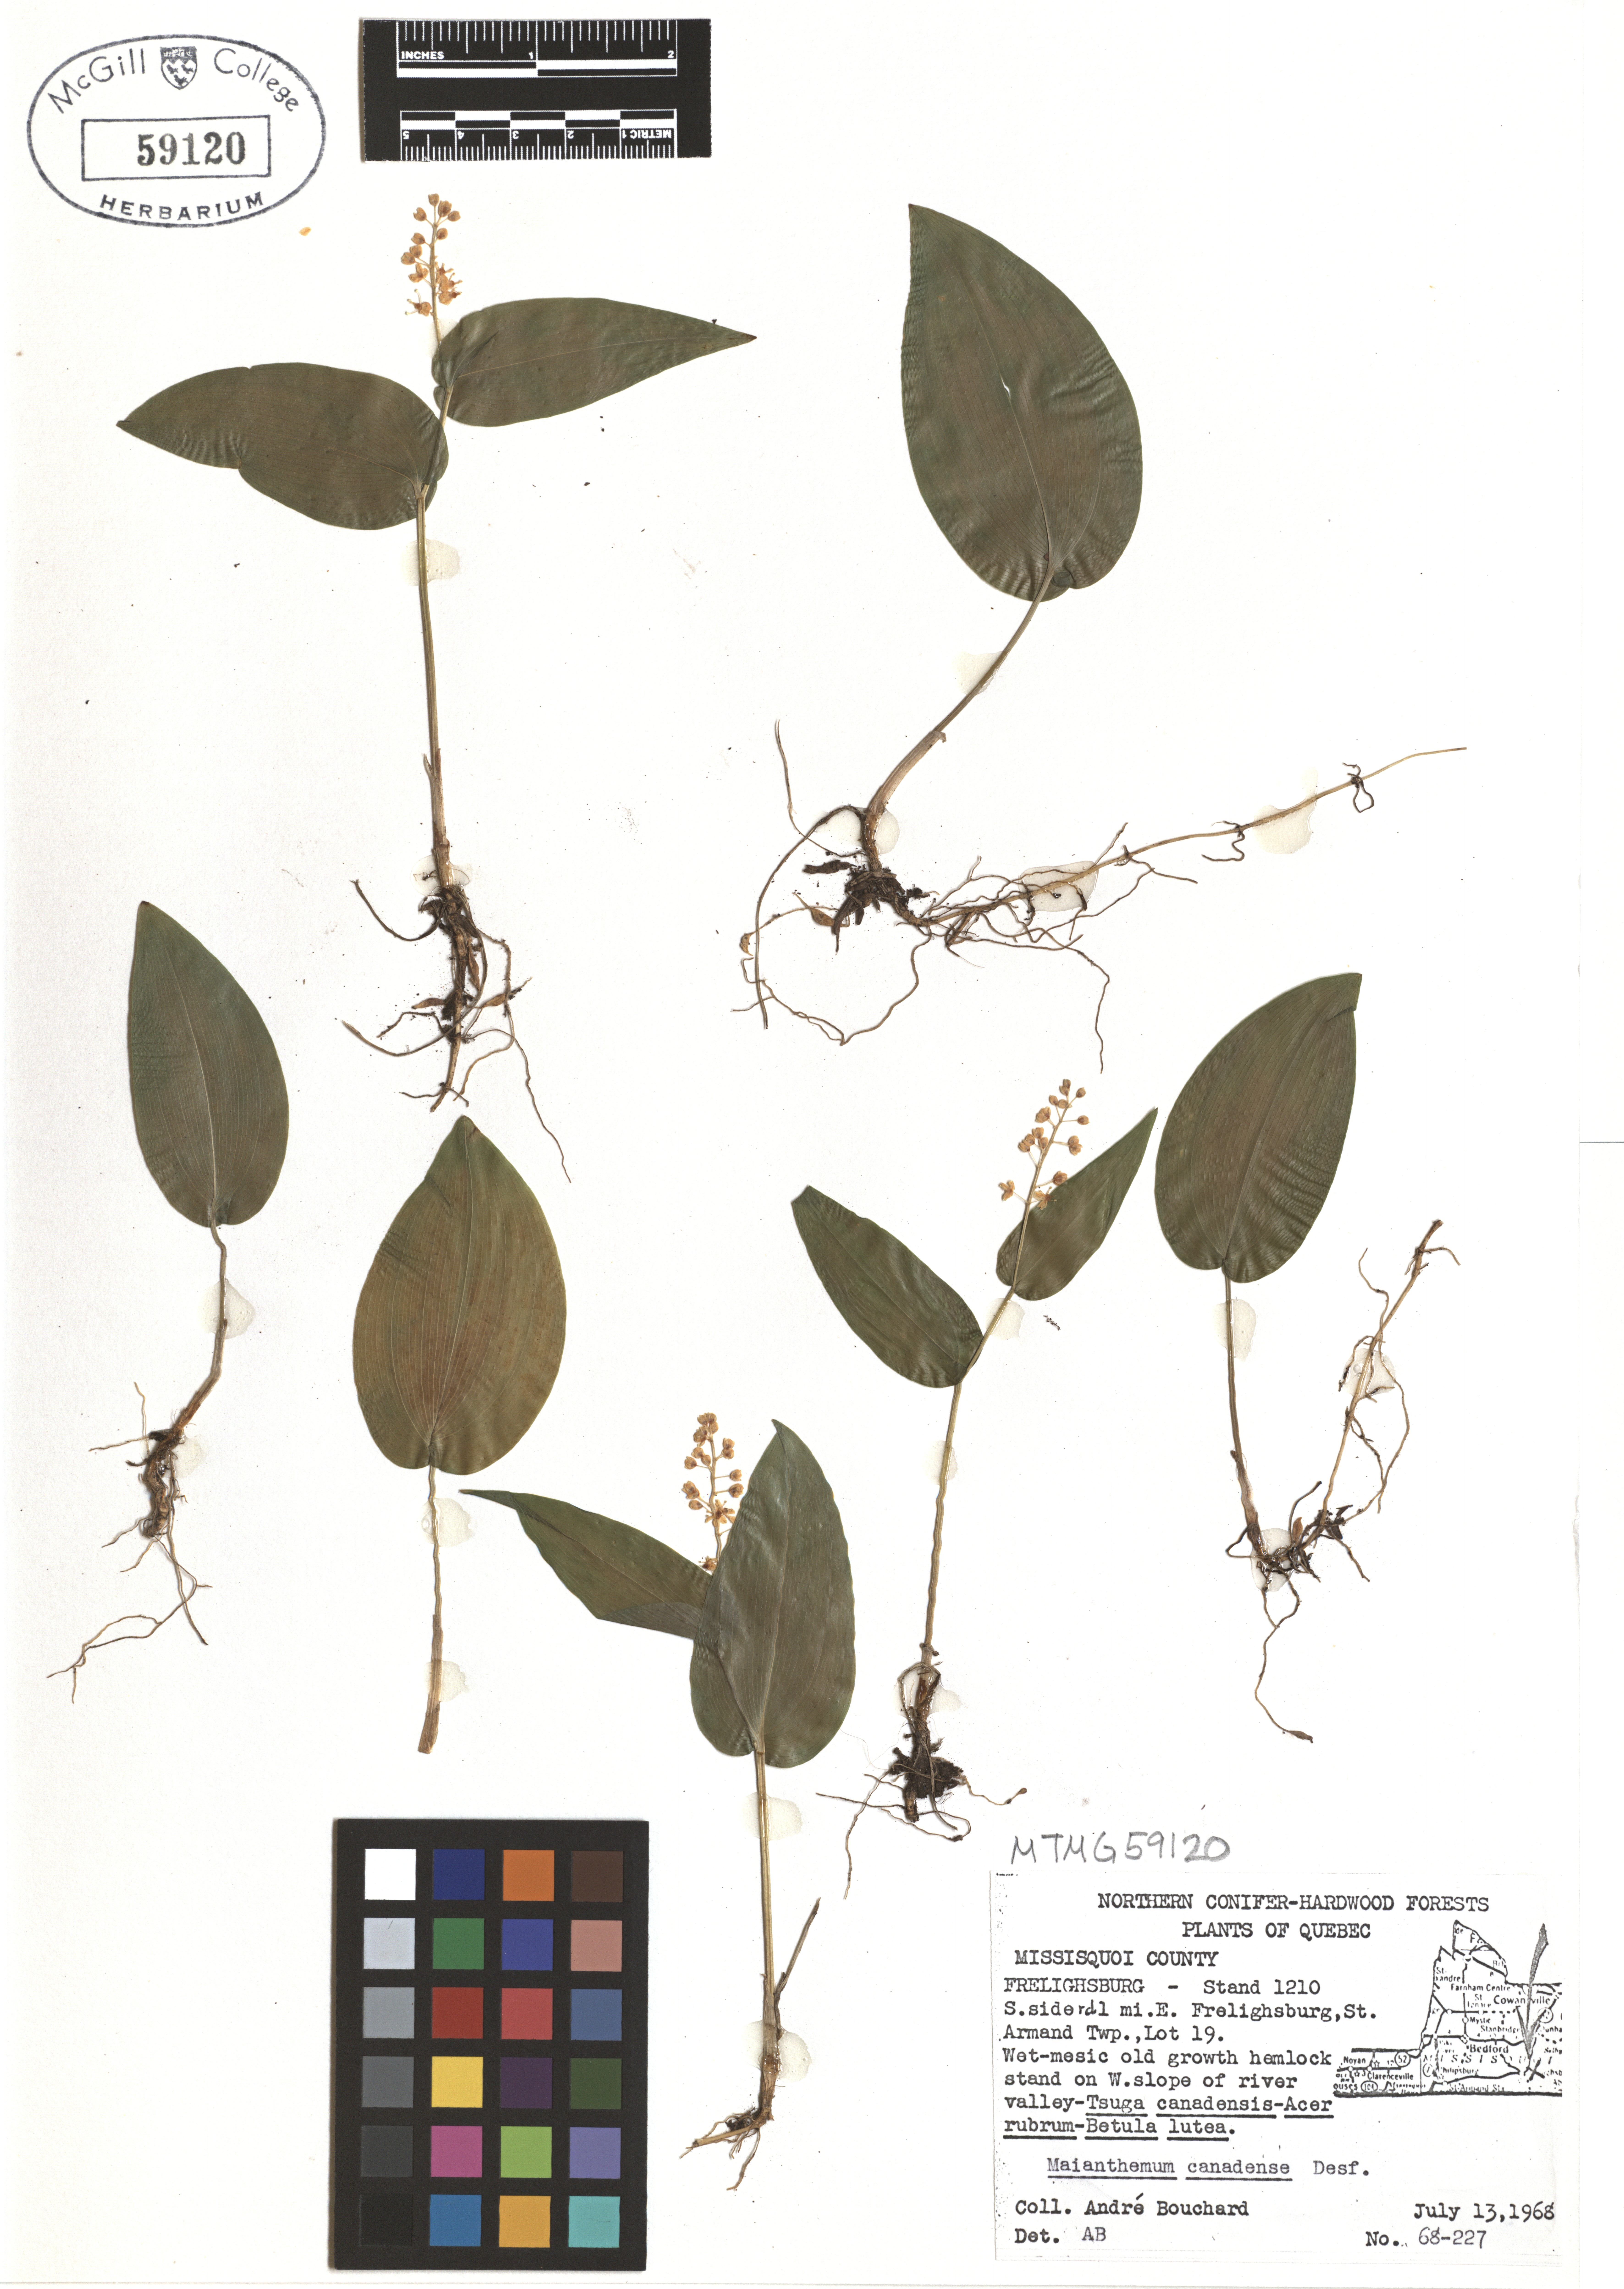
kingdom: Plantae
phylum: Tracheophyta
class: Liliopsida
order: Asparagales
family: Asparagaceae
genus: Maianthemum
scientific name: Maianthemum canadense
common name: False lily-of-the-valley
